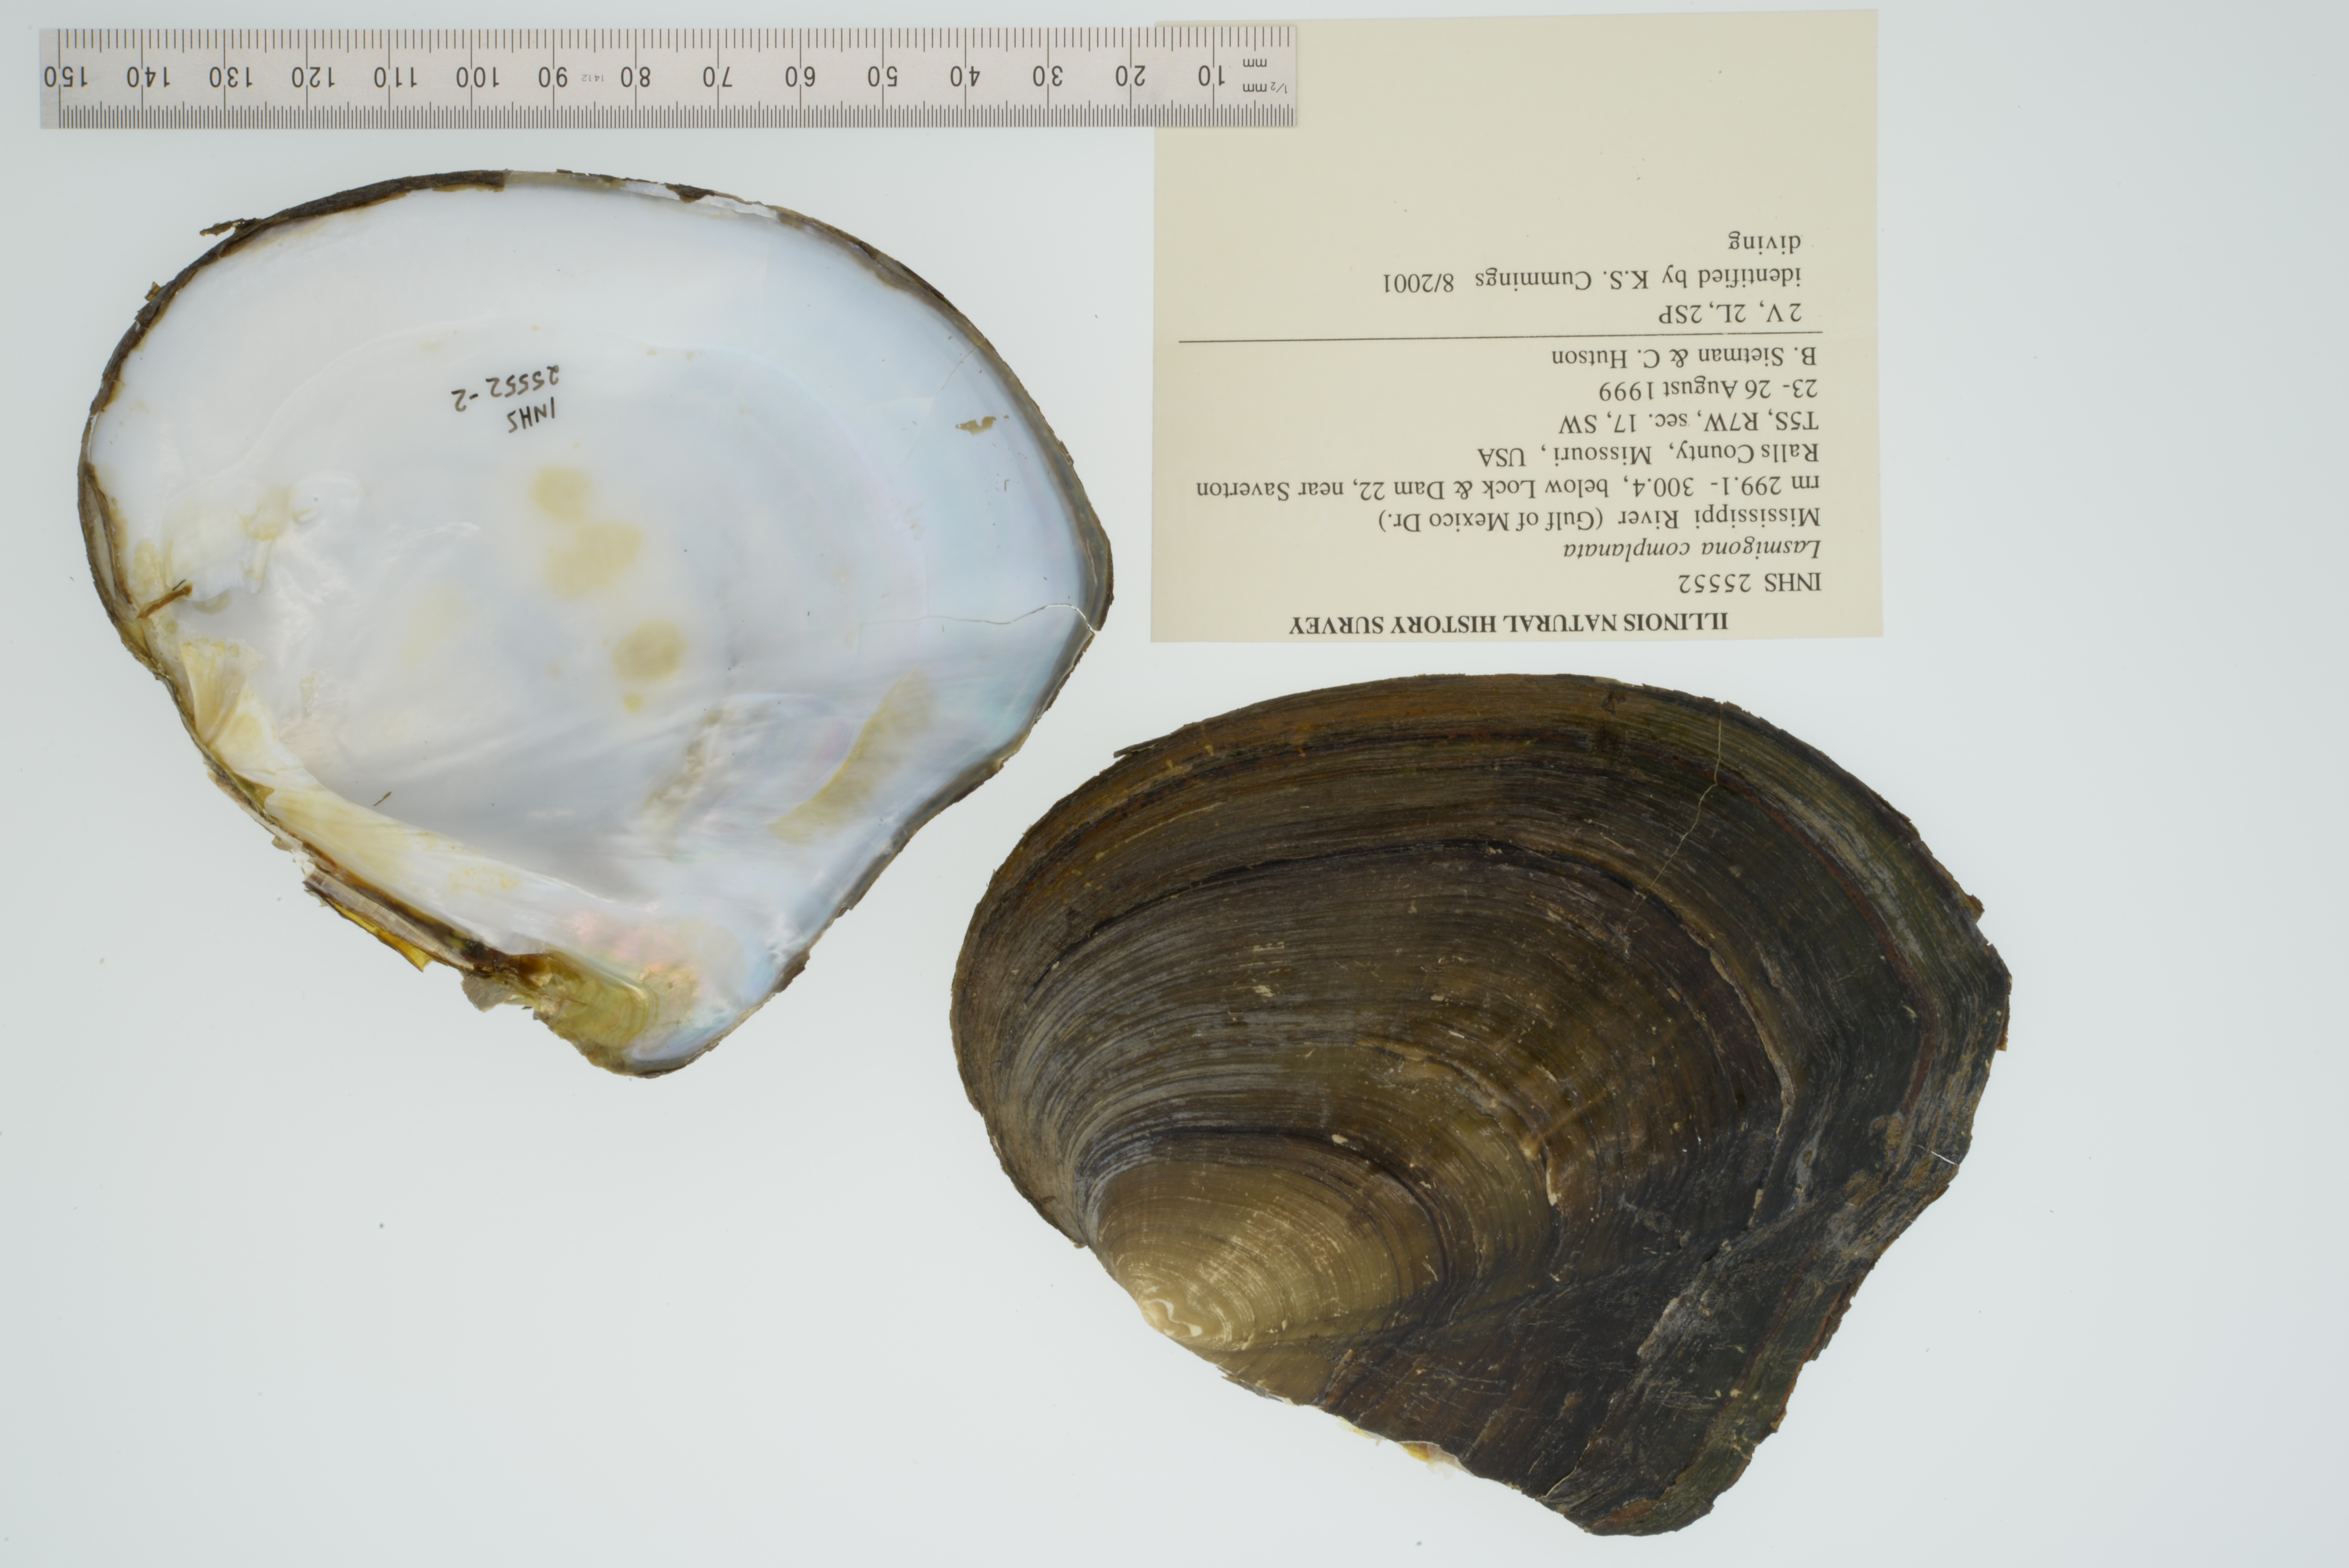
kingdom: Animalia
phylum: Mollusca
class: Bivalvia
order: Unionida
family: Unionidae
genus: Lasmigona
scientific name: Lasmigona complanata
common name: White heelsplitter
